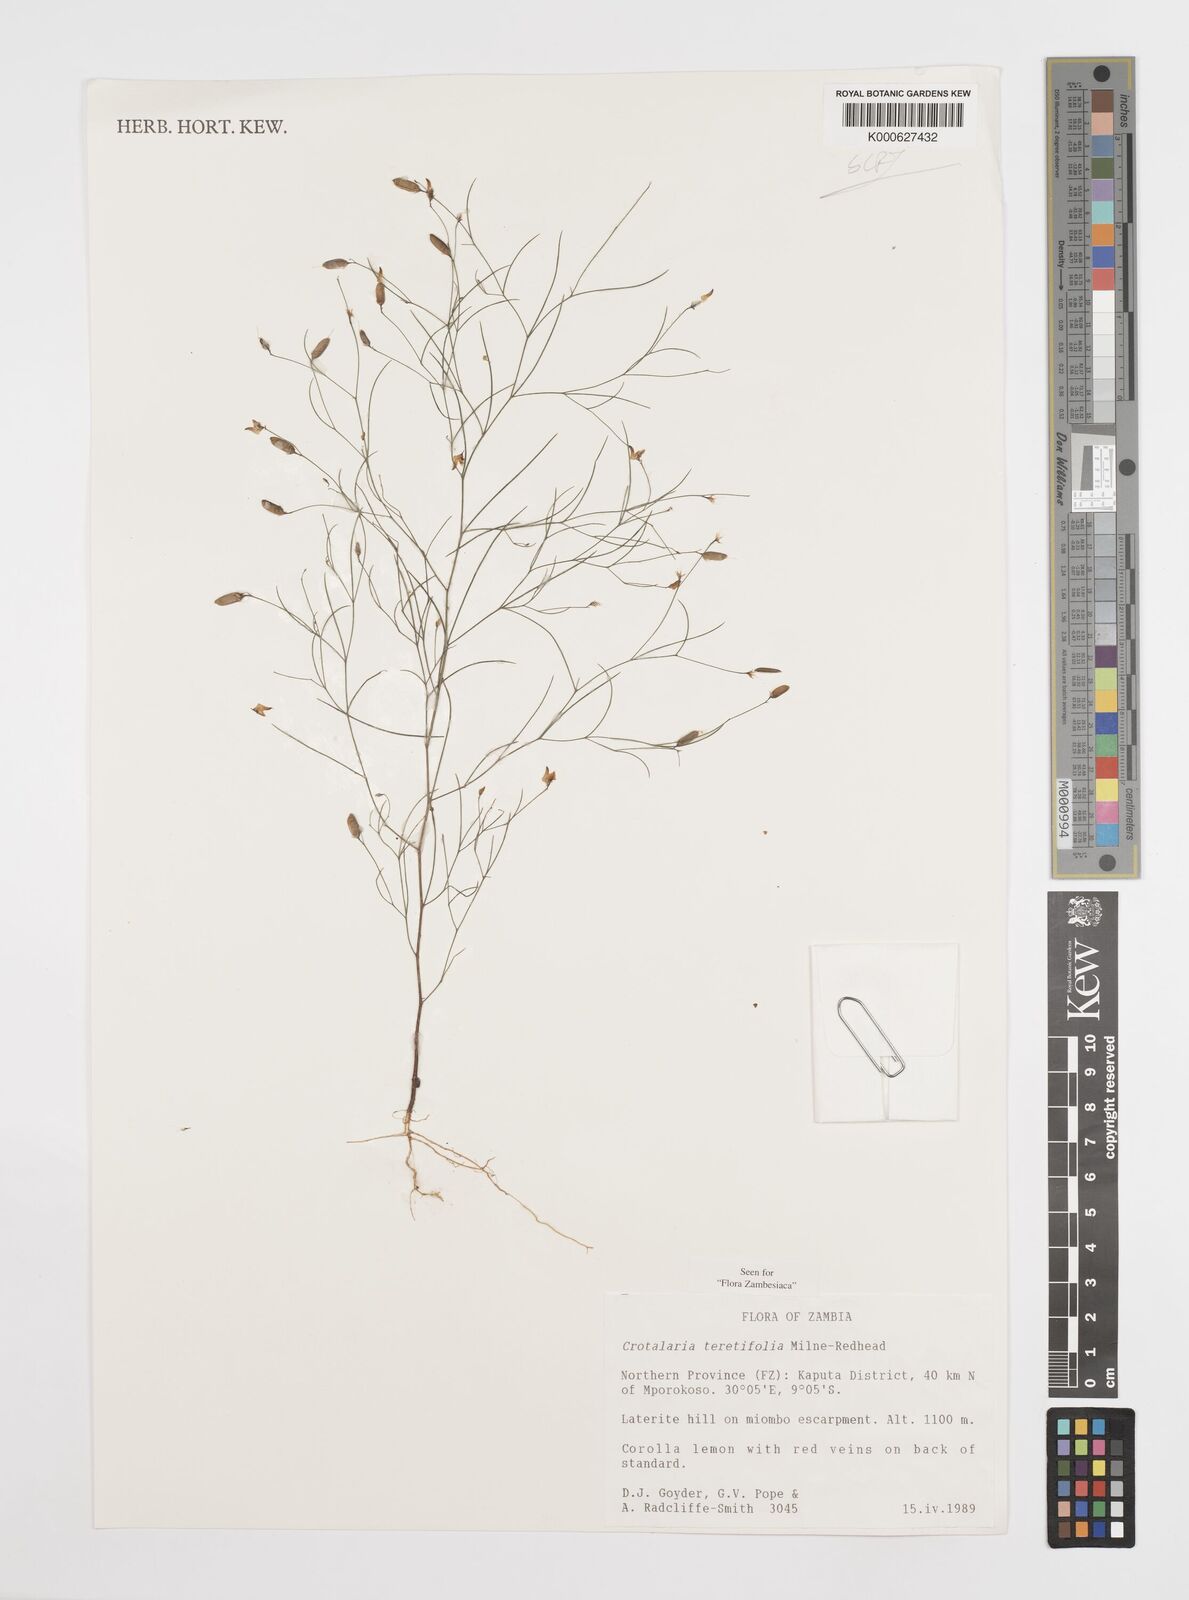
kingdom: Plantae
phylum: Tracheophyta
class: Magnoliopsida
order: Fabales
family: Fabaceae
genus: Crotalaria
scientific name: Crotalaria teretifolia
